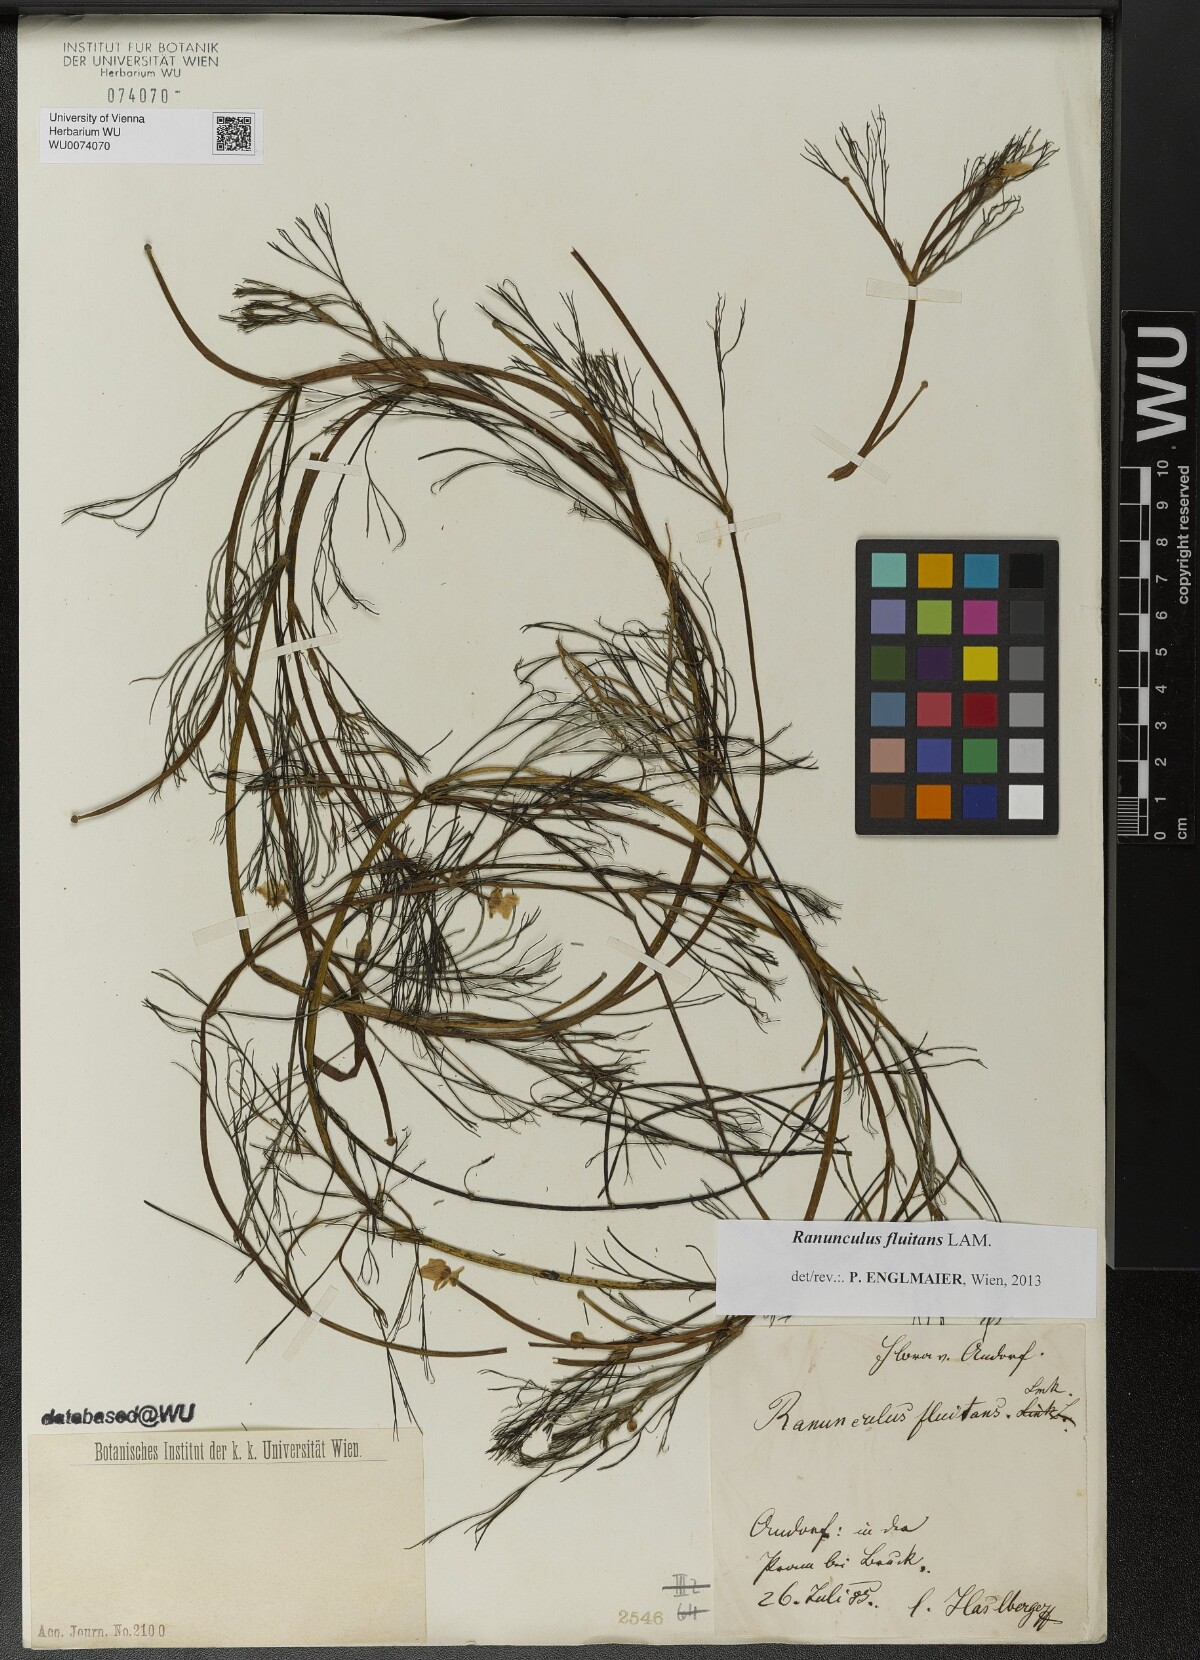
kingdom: Plantae
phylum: Tracheophyta
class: Magnoliopsida
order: Ranunculales
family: Ranunculaceae
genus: Ranunculus
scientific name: Ranunculus fluitans
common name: River water-crowfoot
